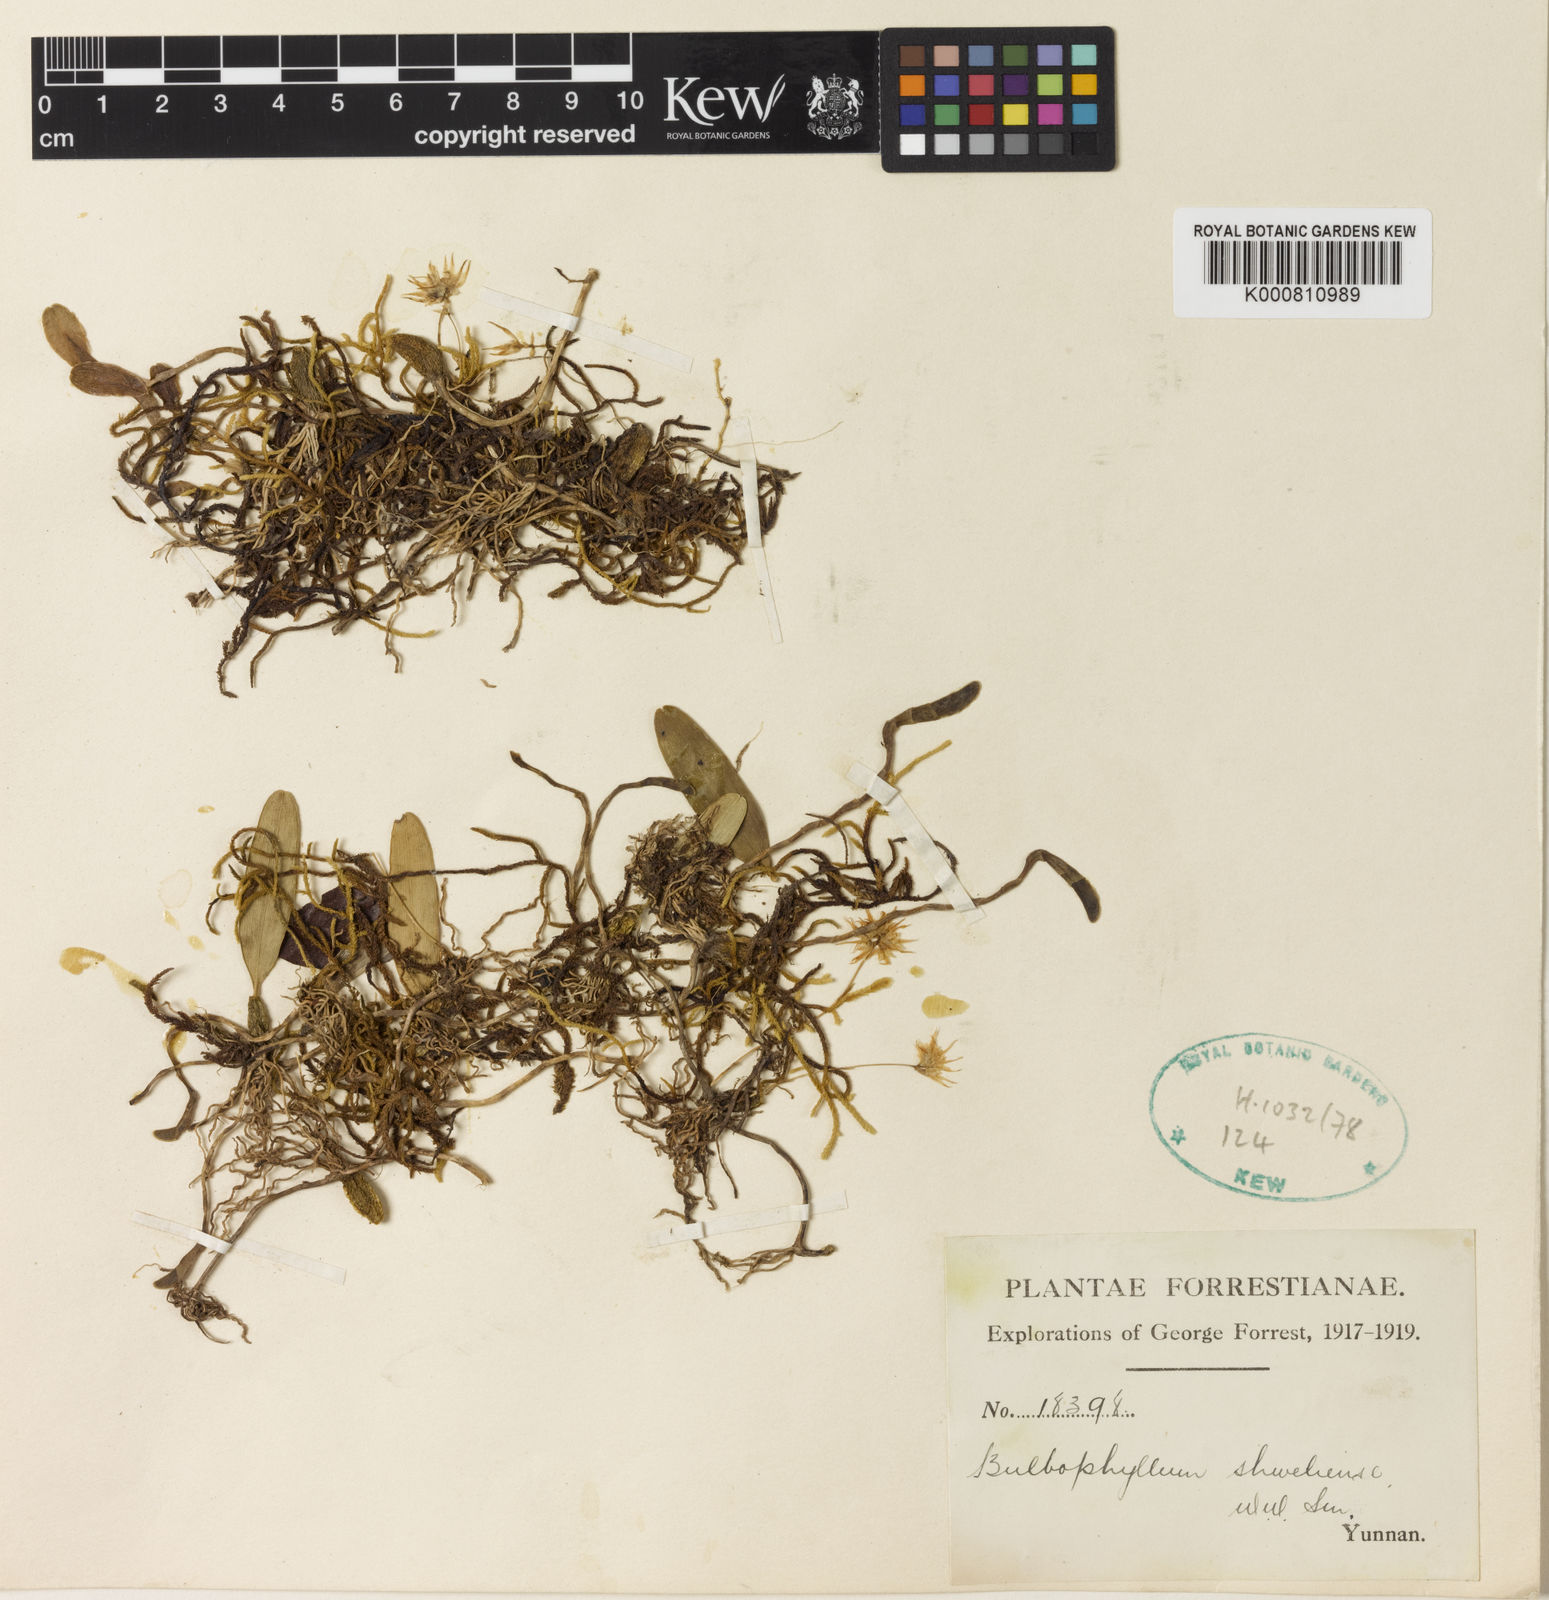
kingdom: Plantae
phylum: Tracheophyta
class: Liliopsida
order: Asparagales
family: Orchidaceae
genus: Bulbophyllum
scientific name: Bulbophyllum shweliense
